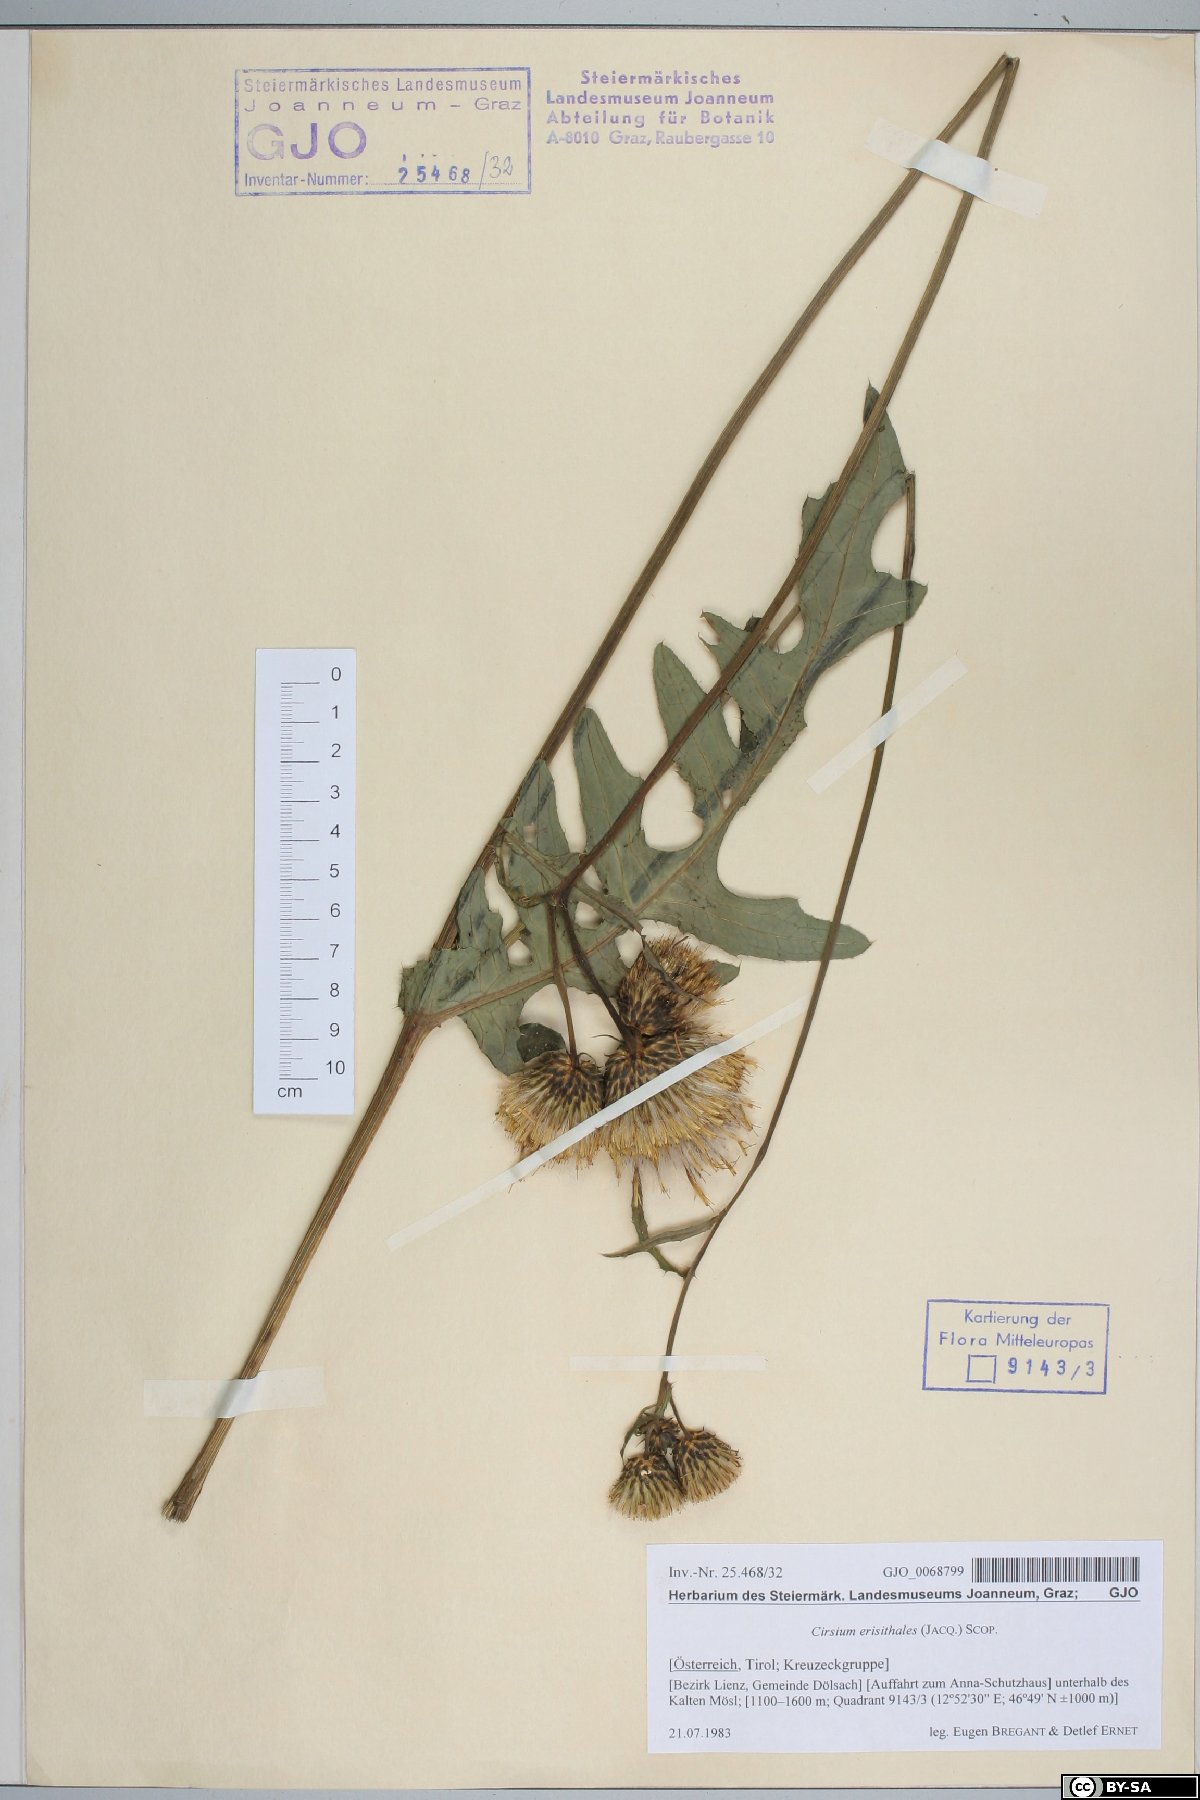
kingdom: Plantae
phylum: Tracheophyta
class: Magnoliopsida
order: Asterales
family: Asteraceae
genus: Cirsium
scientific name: Cirsium erisithales
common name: Yellow thistle
